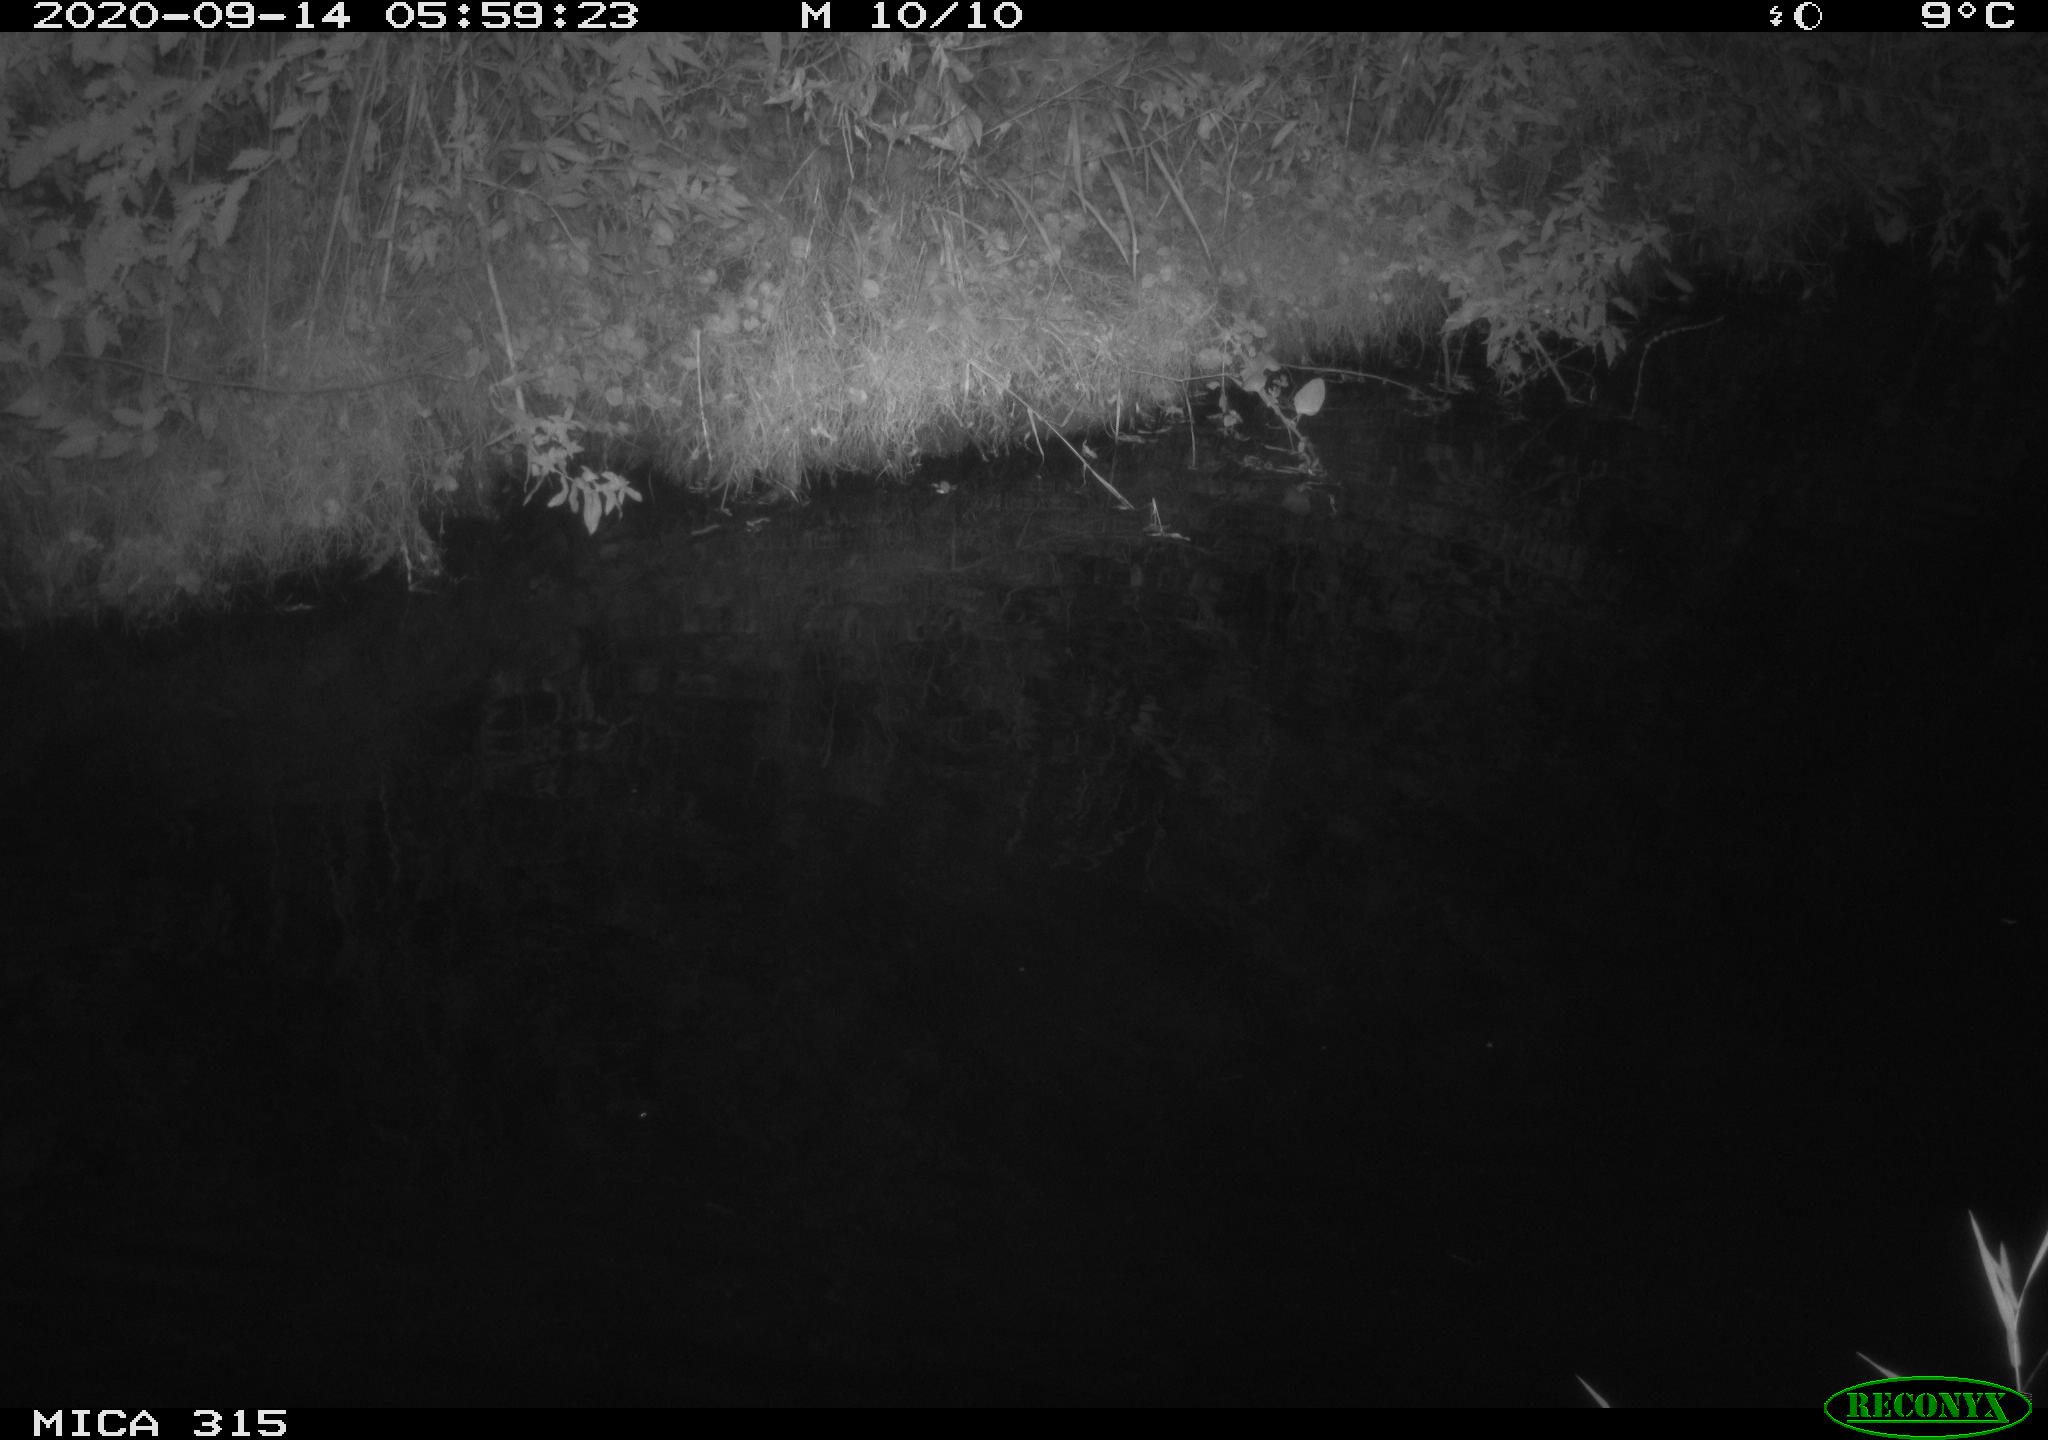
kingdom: Animalia
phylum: Chordata
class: Aves
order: Anseriformes
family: Anatidae
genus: Anas
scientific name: Anas platyrhynchos
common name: Mallard
